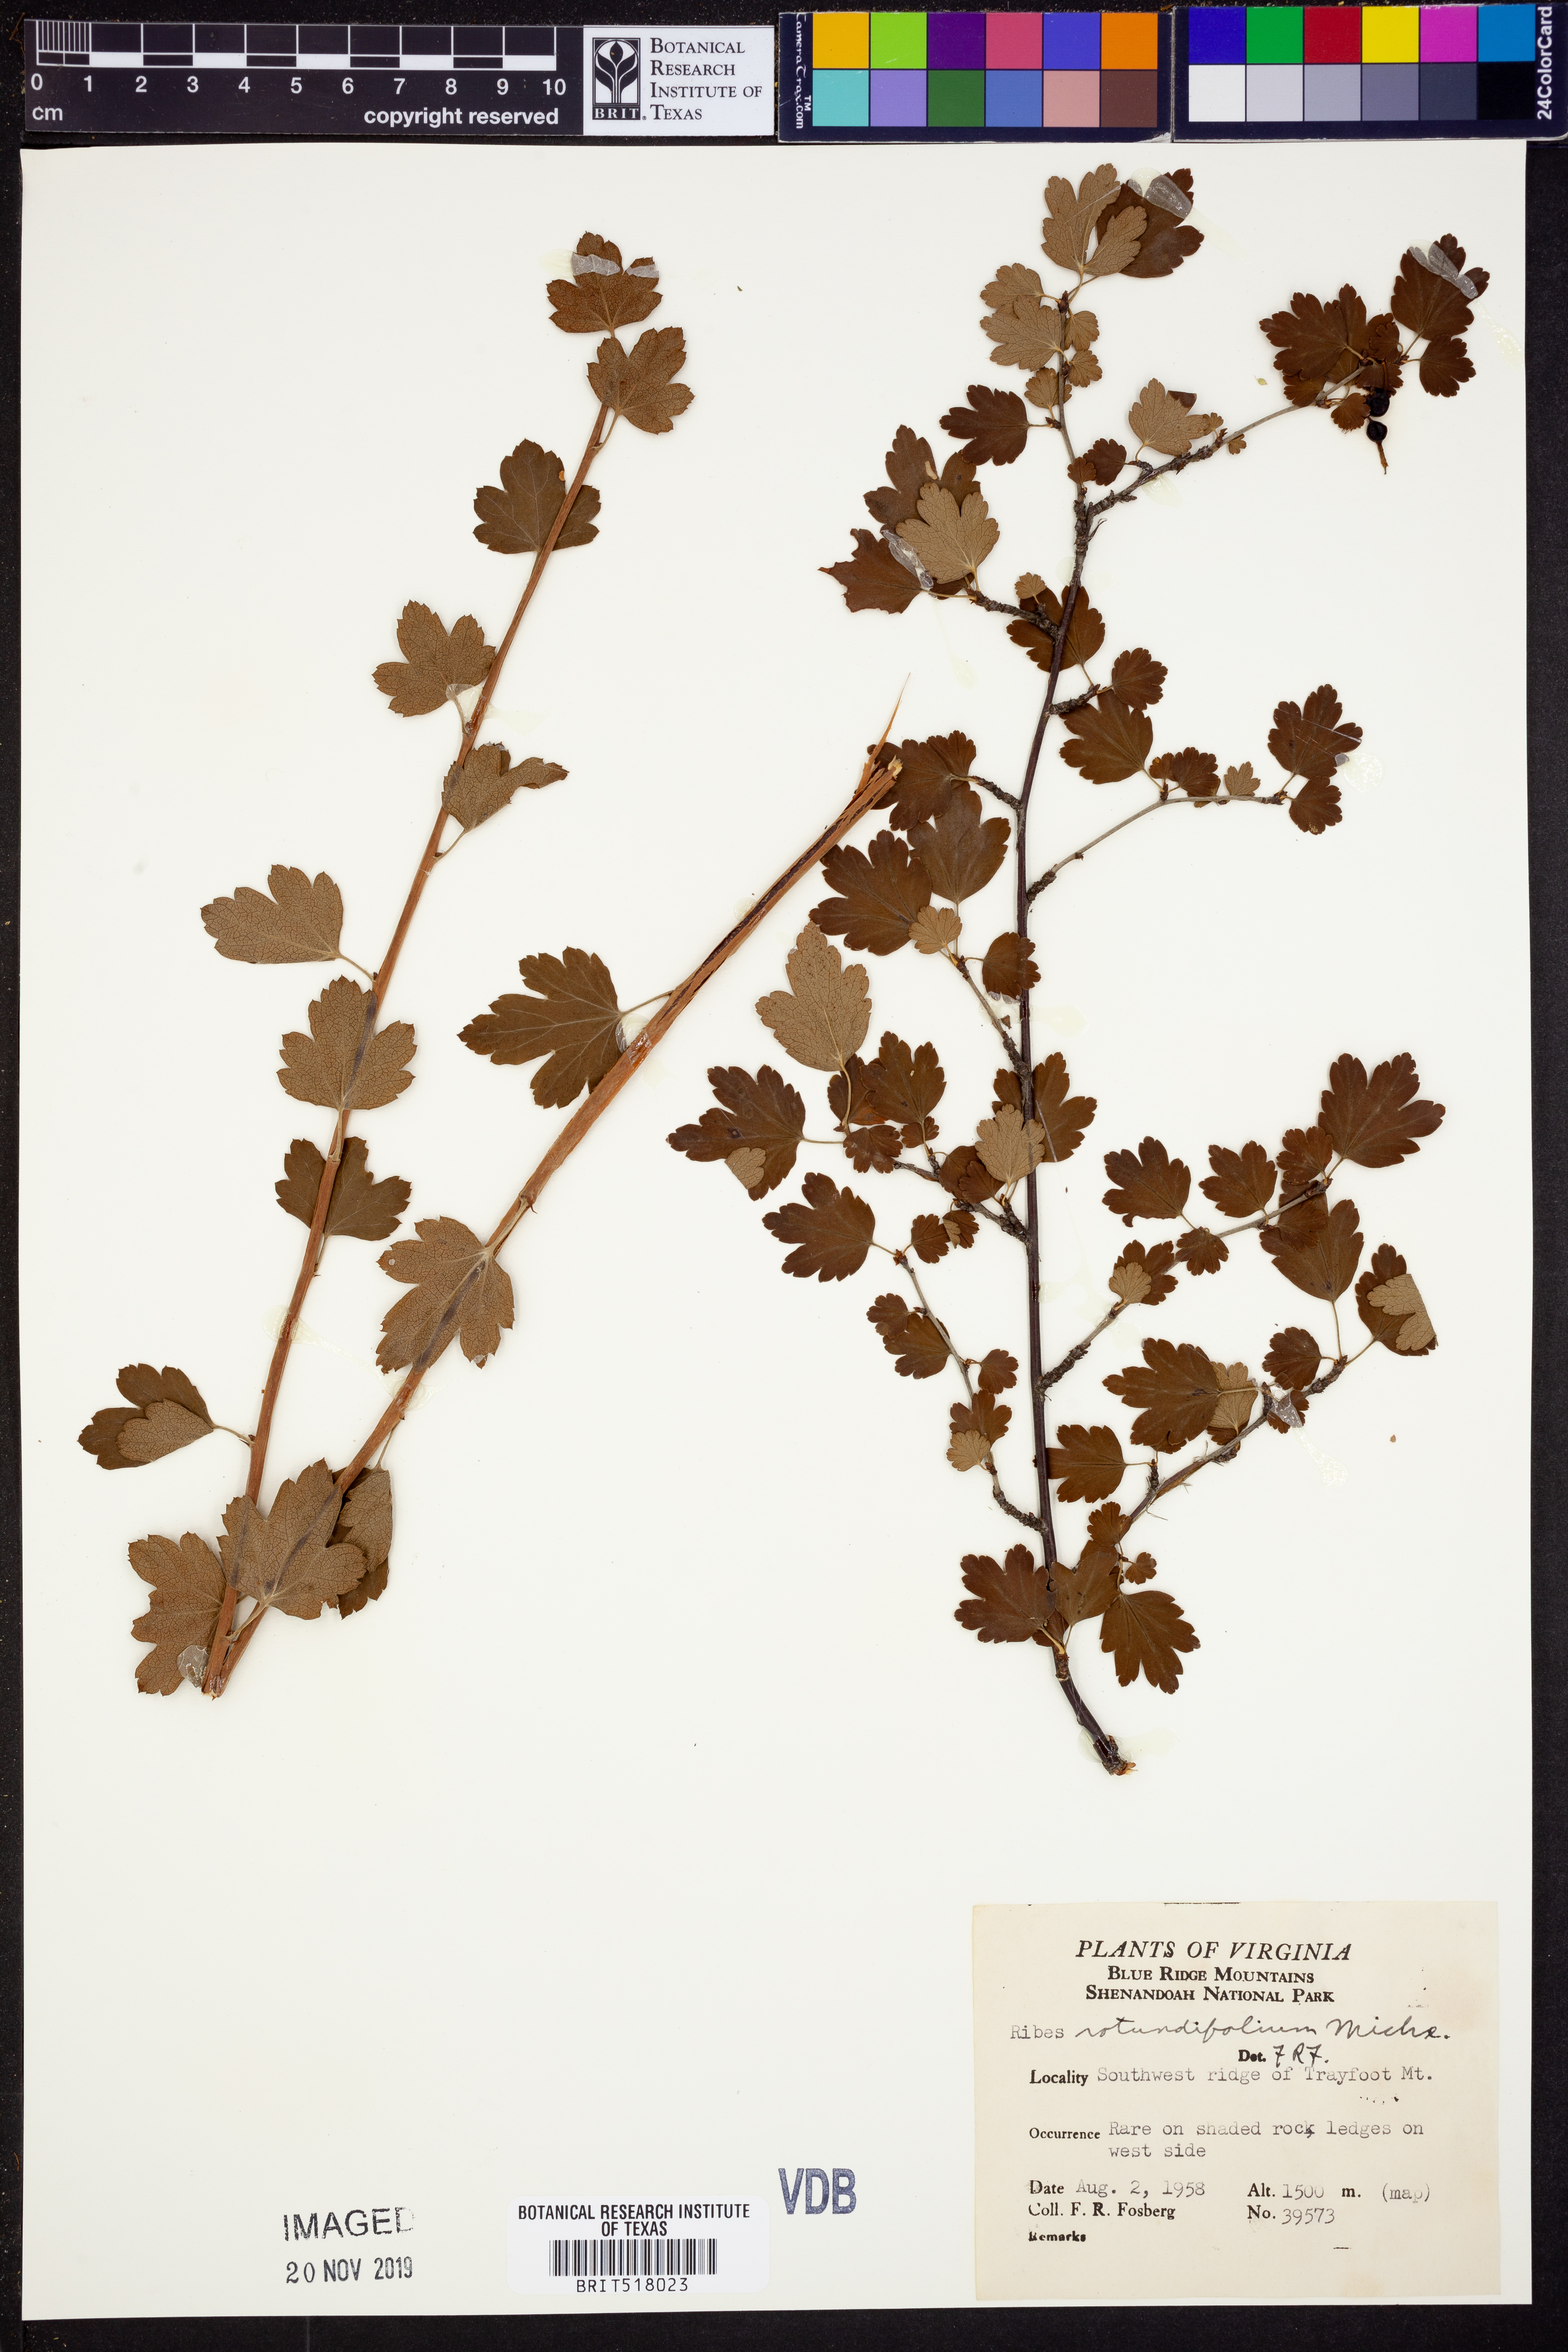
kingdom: Plantae
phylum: Tracheophyta
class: Magnoliopsida
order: Saxifragales
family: Grossulariaceae
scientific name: Grossulariaceae
